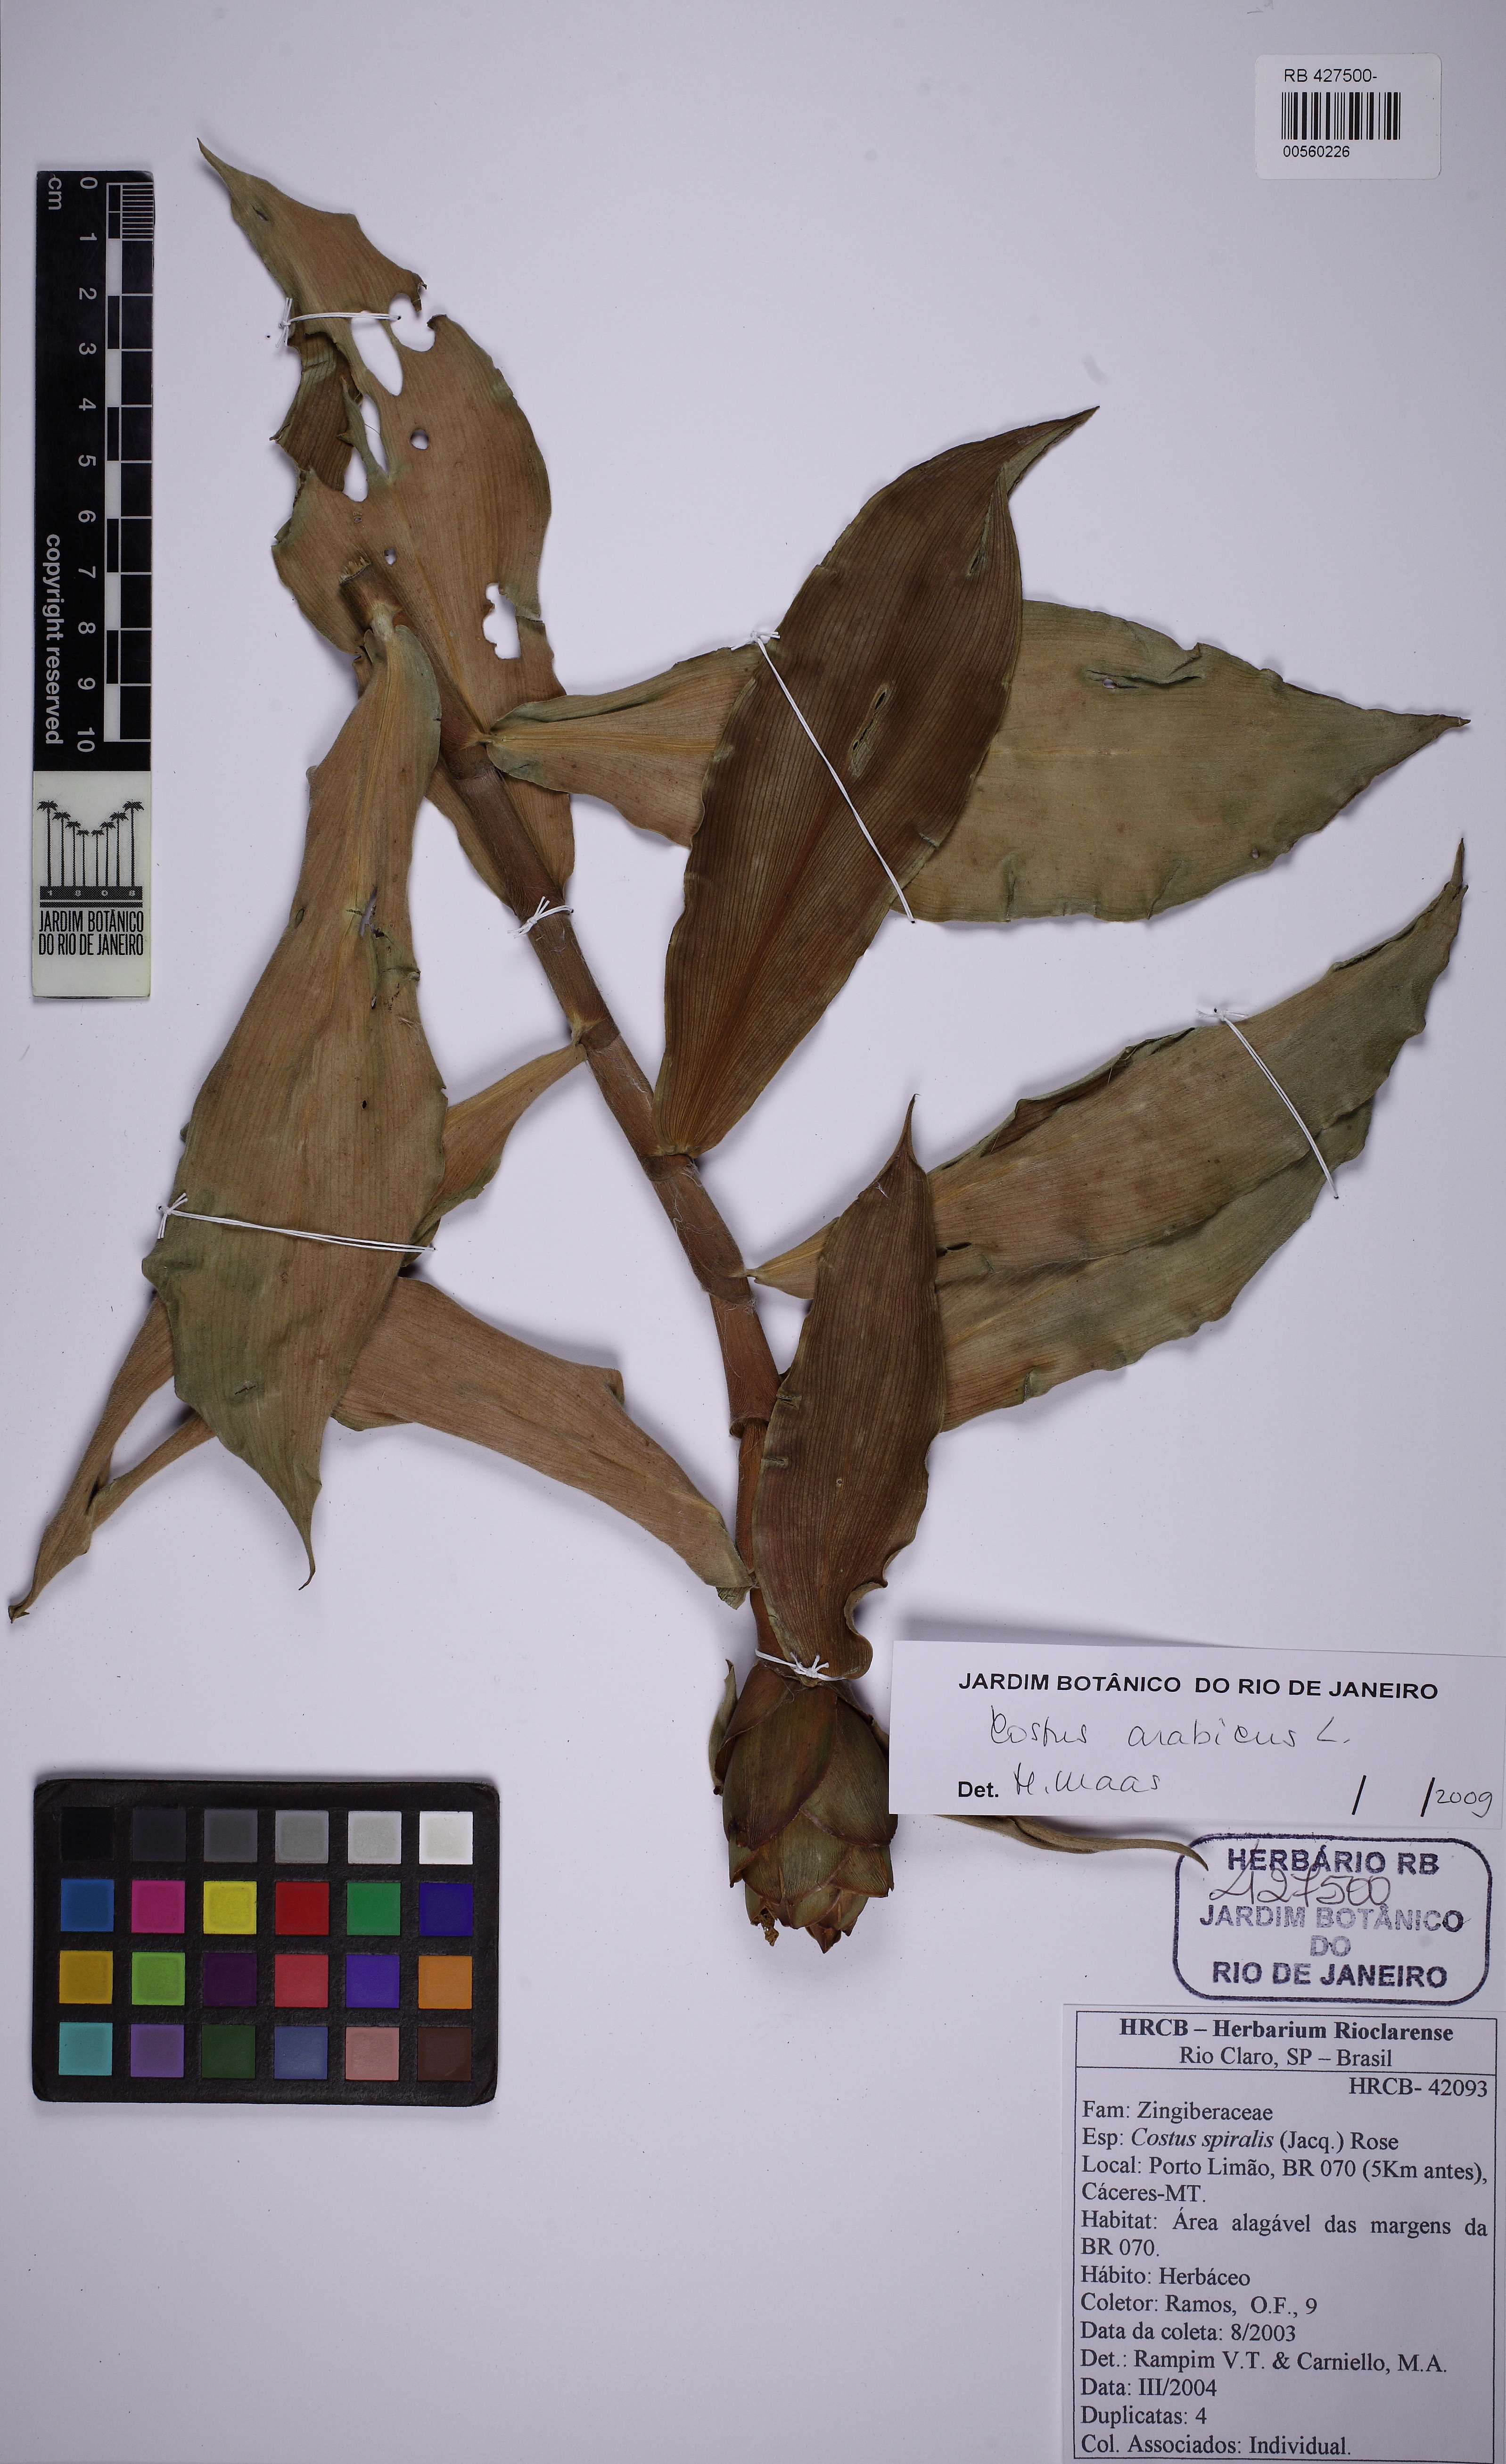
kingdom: Plantae
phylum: Tracheophyta
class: Liliopsida
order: Zingiberales
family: Costaceae
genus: Costus
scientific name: Costus arabicus
